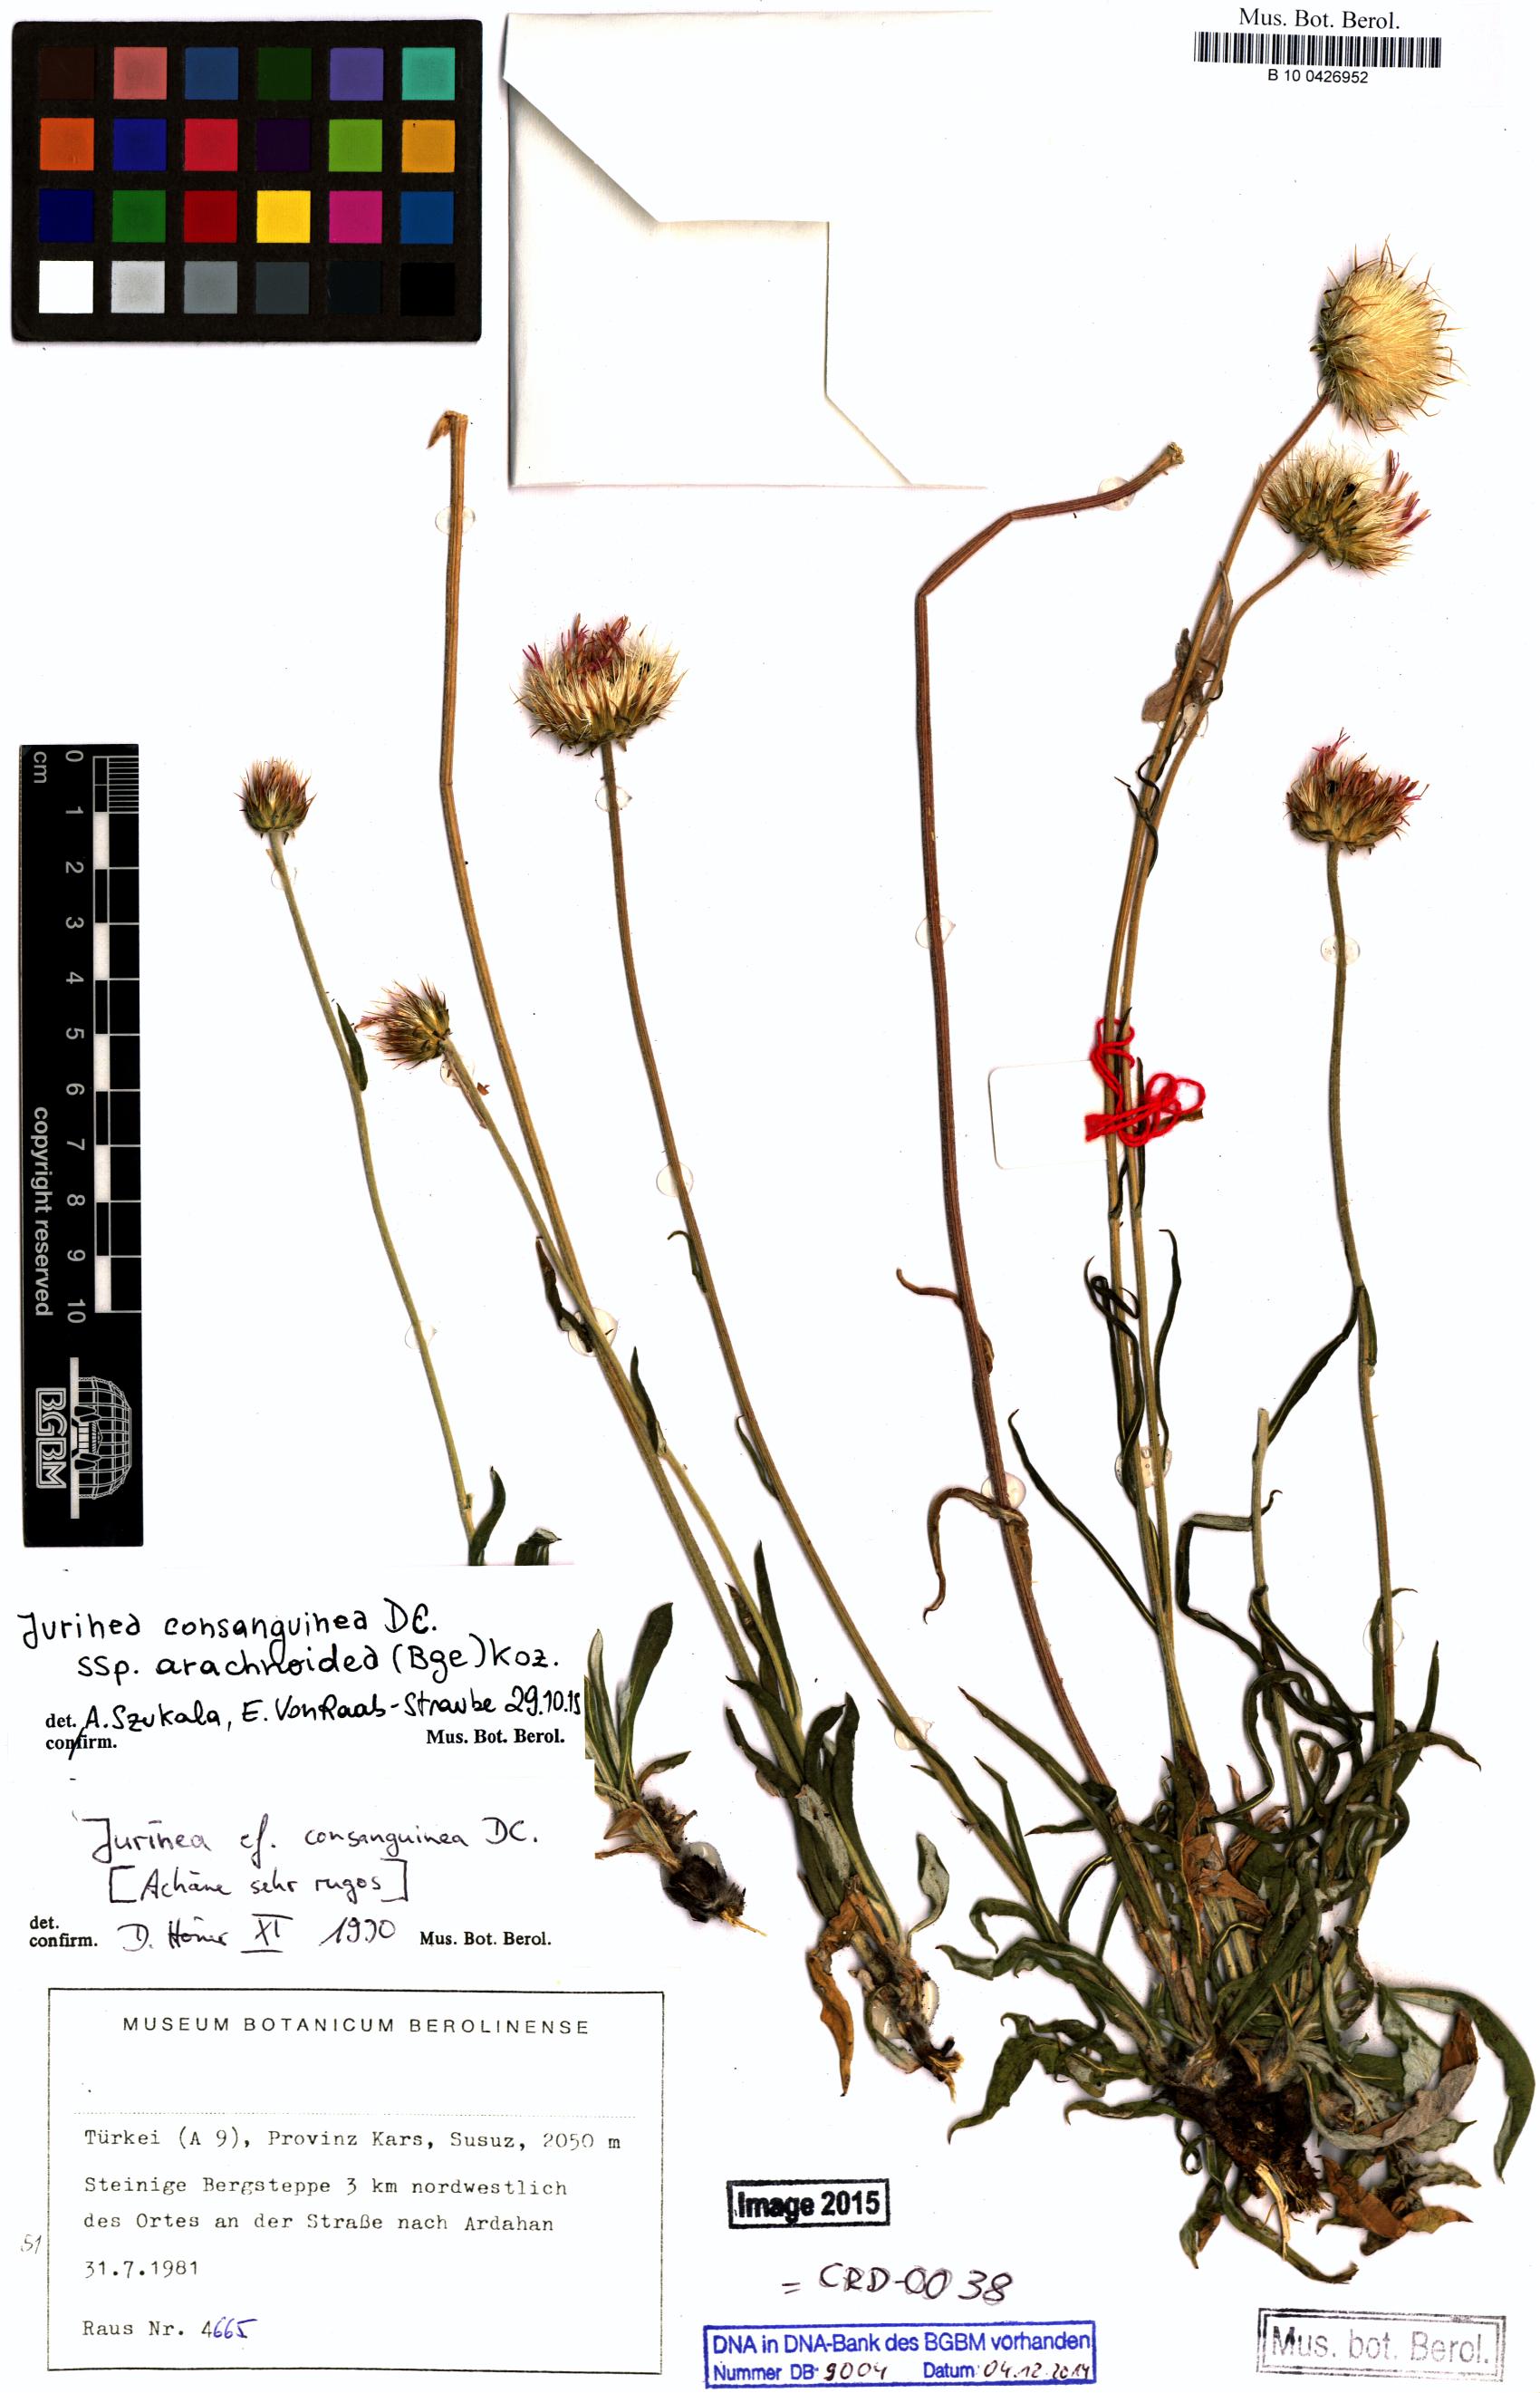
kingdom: Plantae
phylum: Tracheophyta
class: Magnoliopsida
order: Asterales
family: Asteraceae
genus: Jurinea
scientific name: Jurinea arachnoidea
